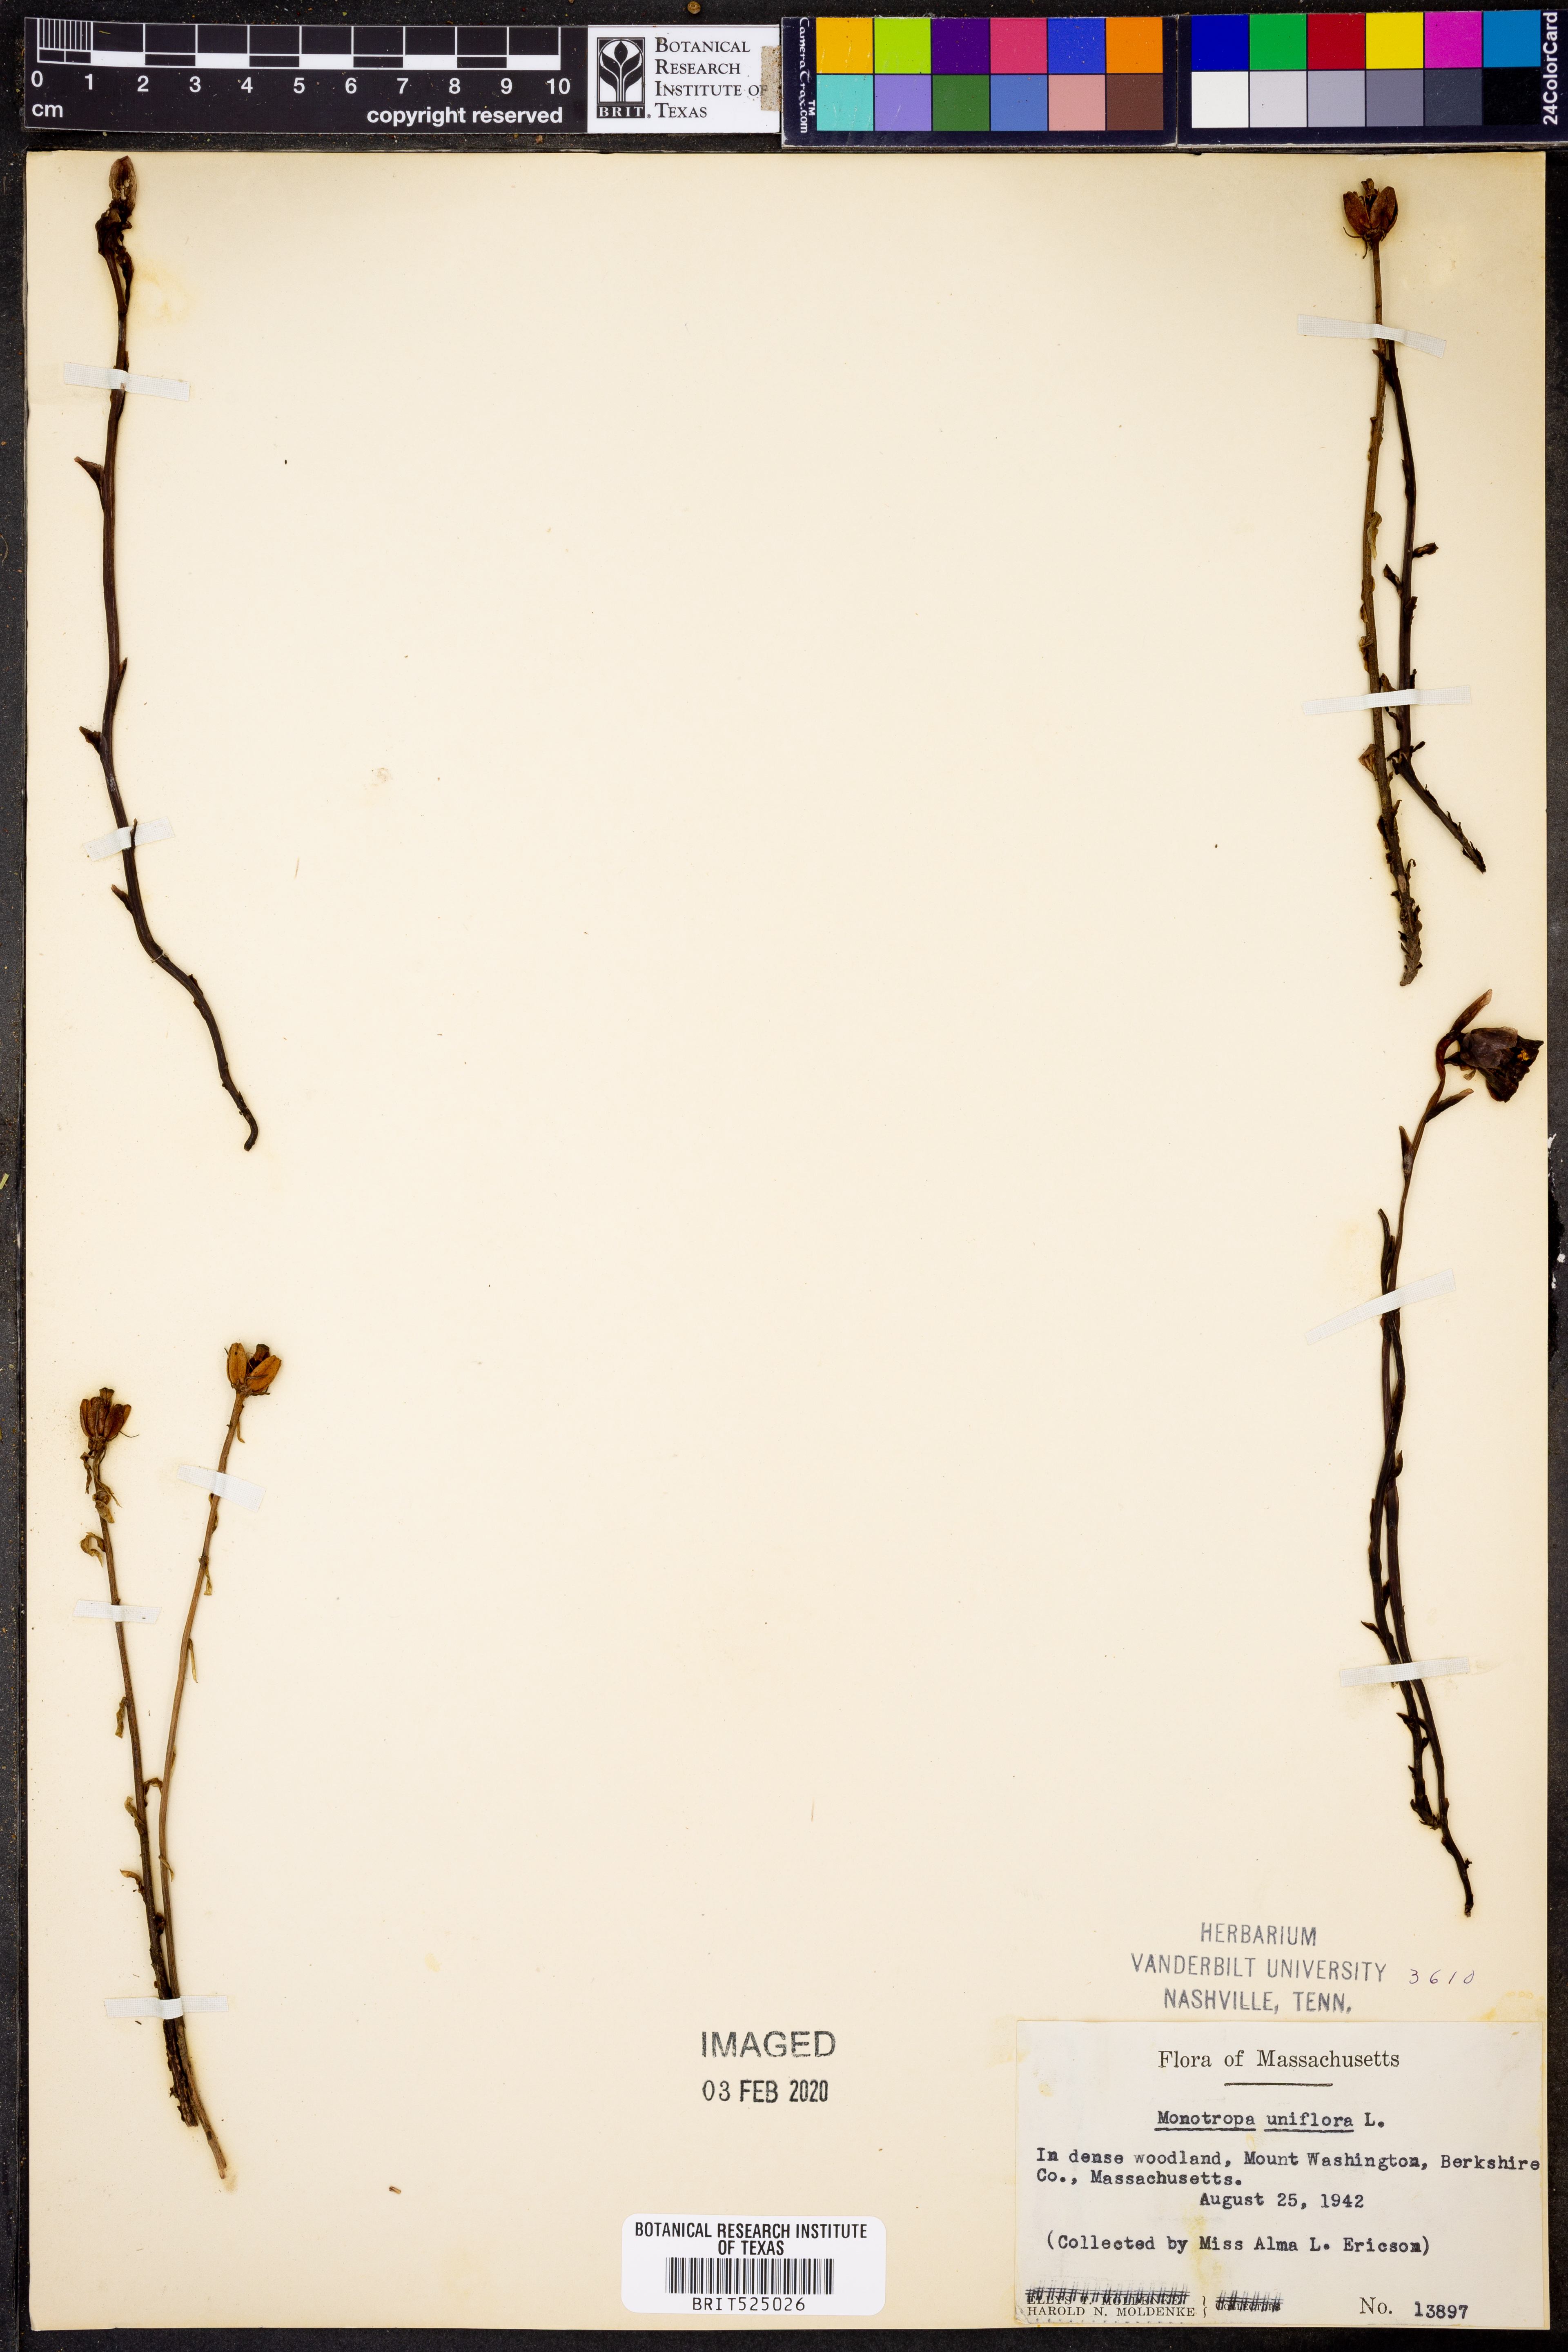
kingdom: Plantae
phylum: Tracheophyta
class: Magnoliopsida
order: Ericales
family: Ericaceae
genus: Monotropa
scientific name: Monotropa uniflora
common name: Convulsion root
